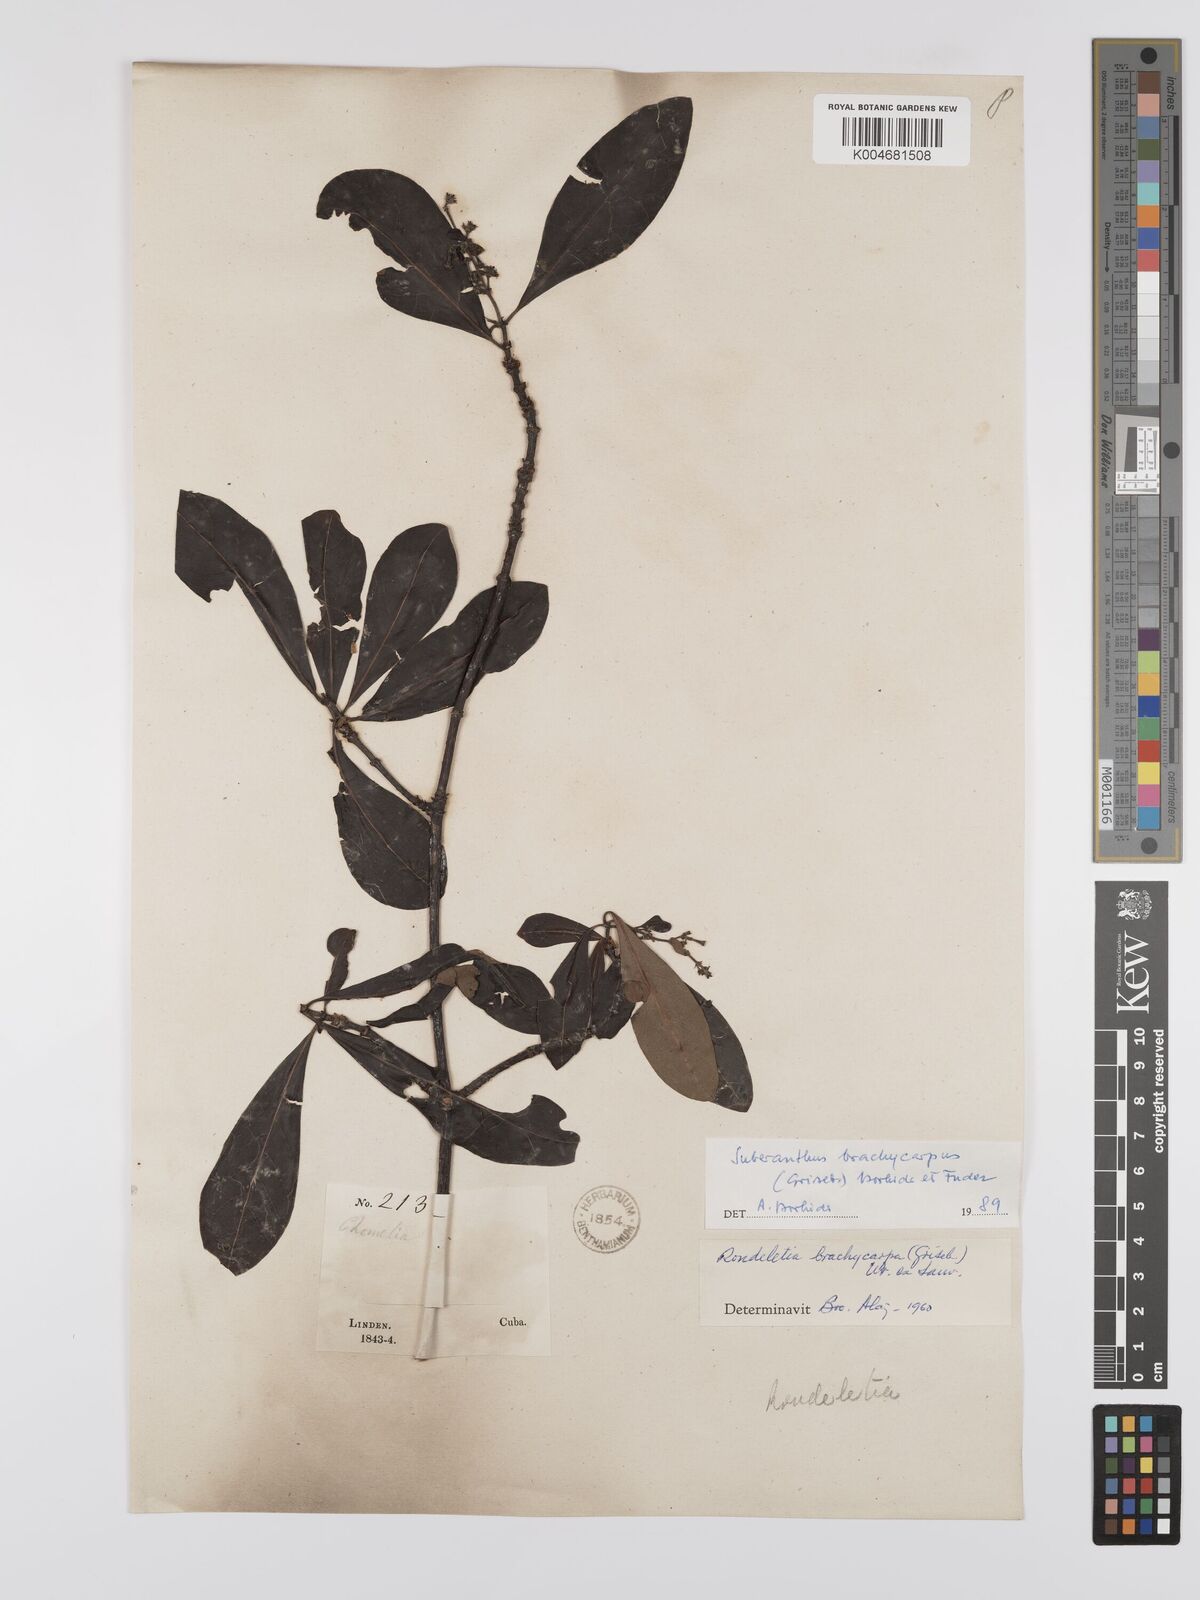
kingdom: Plantae
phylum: Tracheophyta
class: Magnoliopsida
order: Gentianales
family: Rubiaceae
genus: Suberanthus
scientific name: Suberanthus brachycarpus
